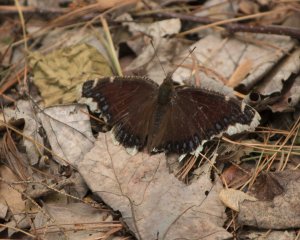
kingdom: Animalia
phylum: Arthropoda
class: Insecta
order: Lepidoptera
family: Nymphalidae
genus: Nymphalis
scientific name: Nymphalis antiopa
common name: Mourning Cloak
